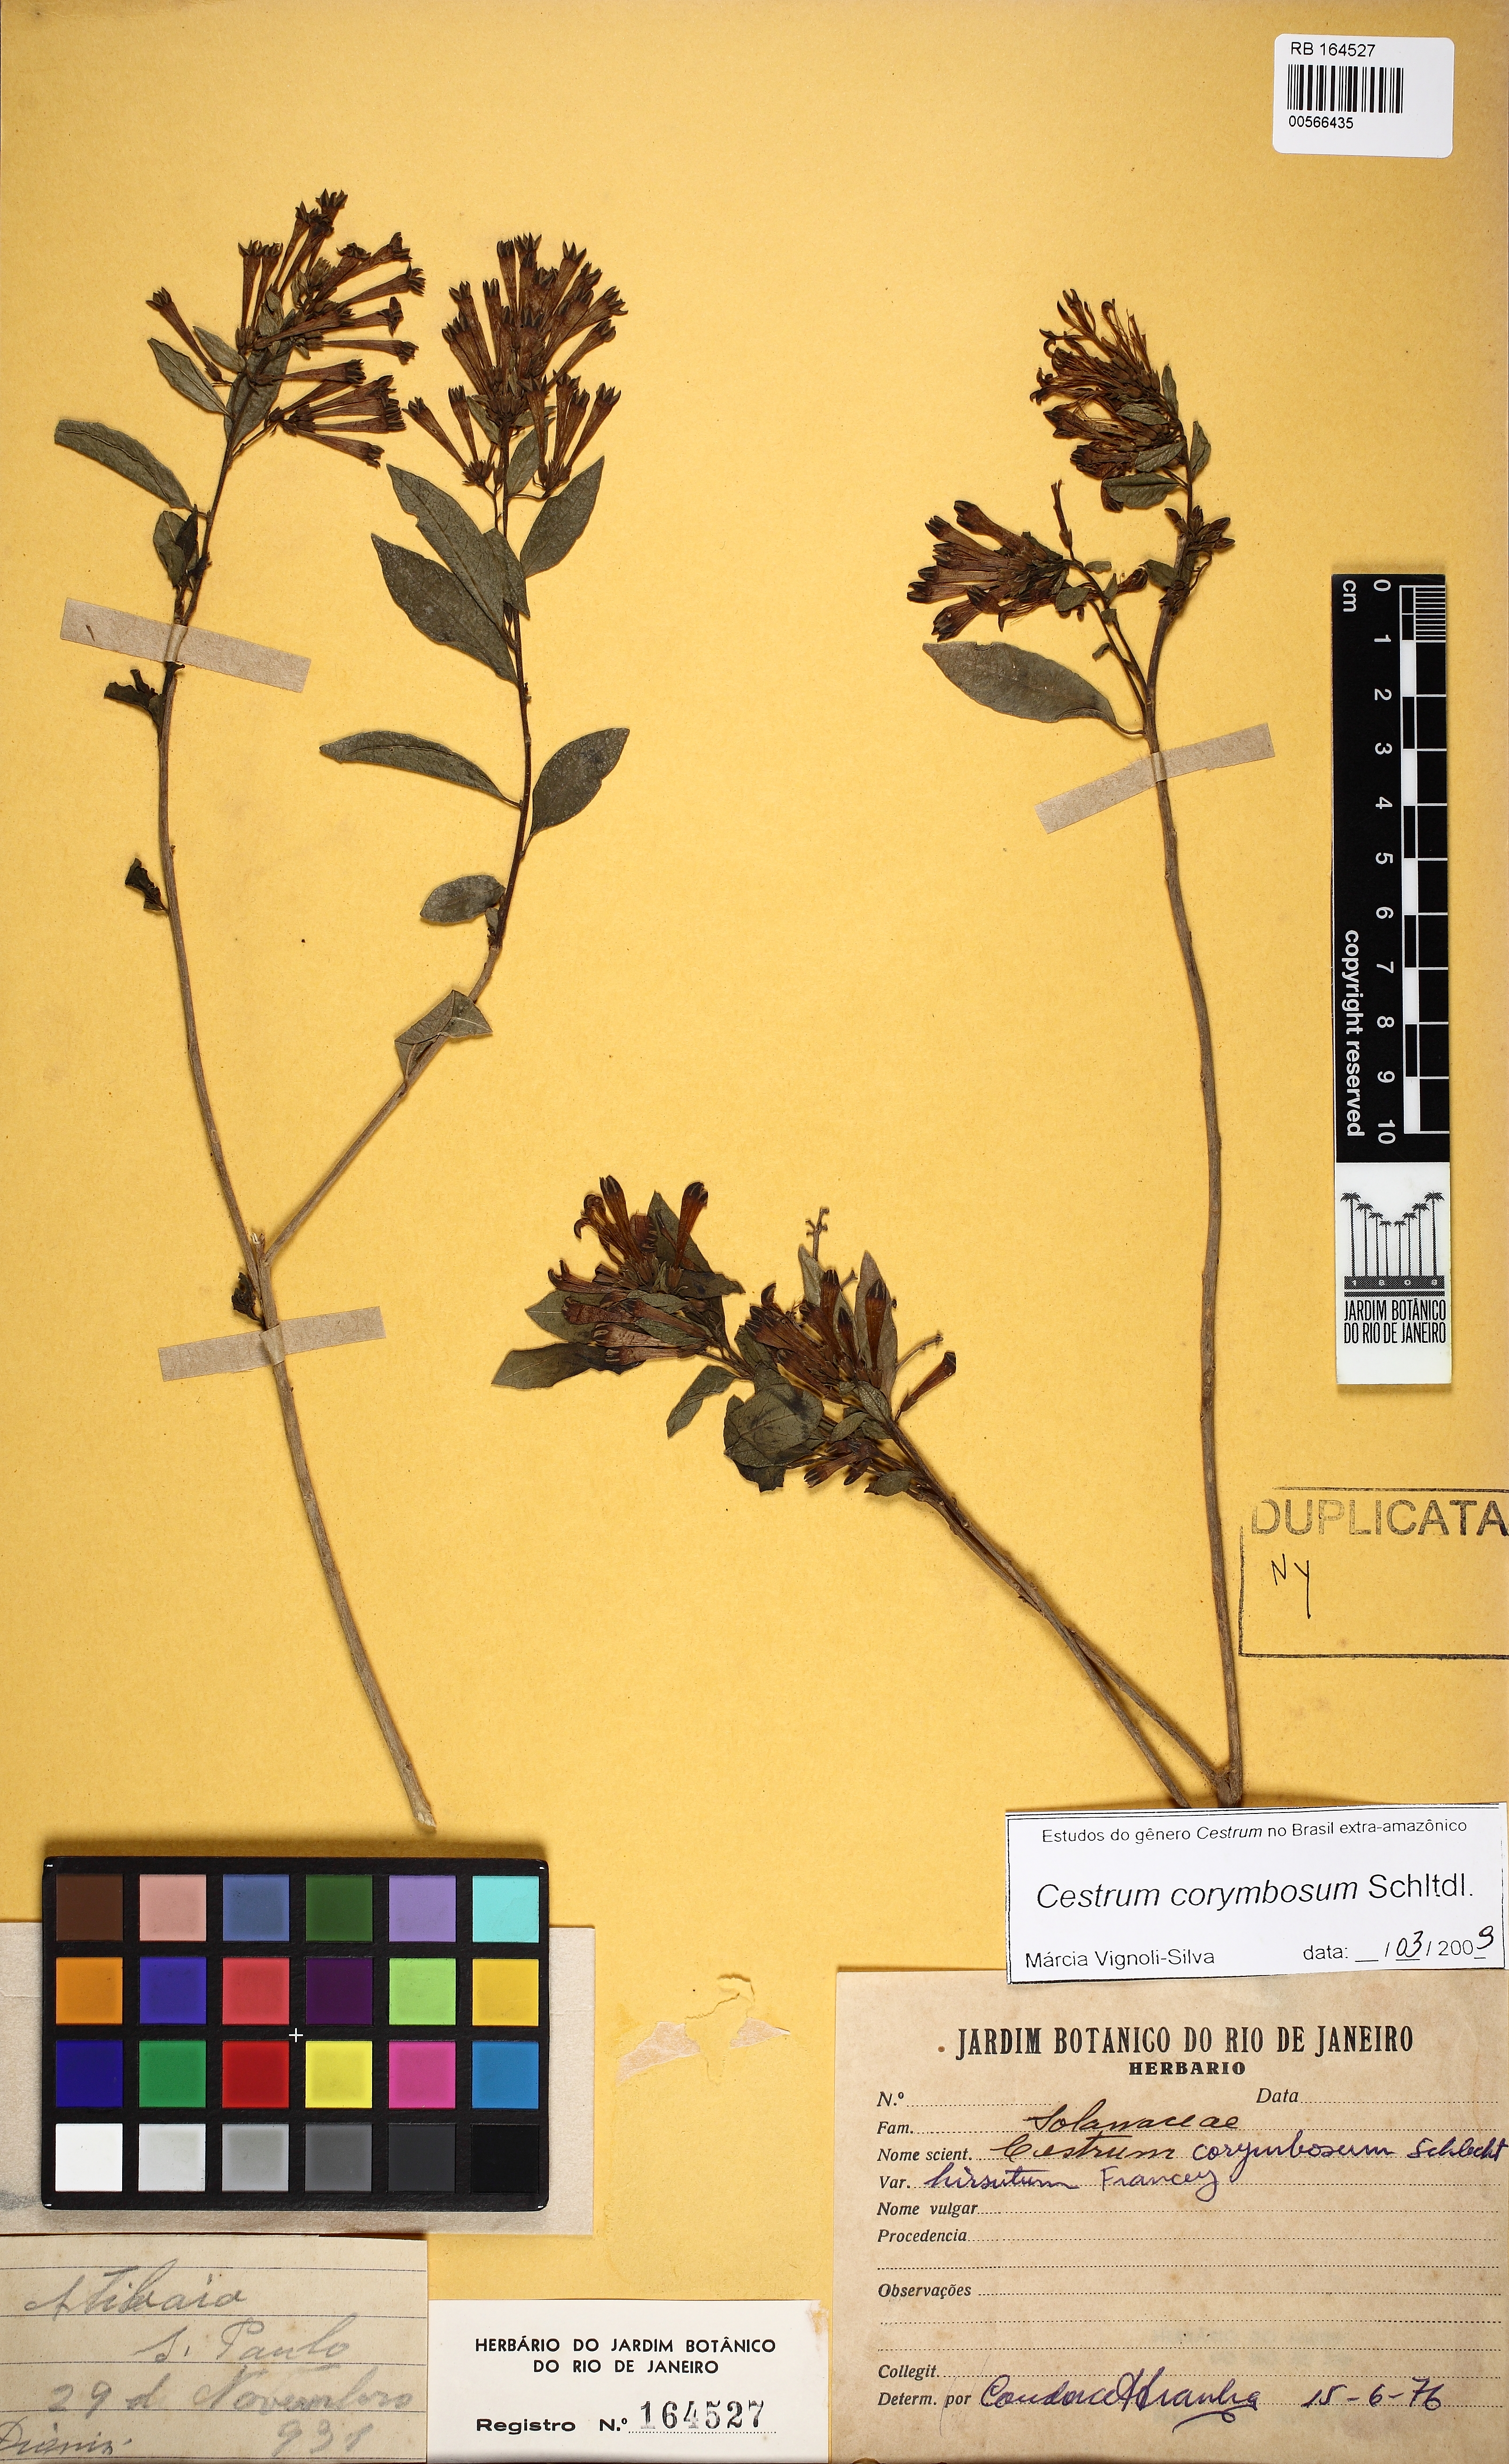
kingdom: Plantae
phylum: Tracheophyta
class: Magnoliopsida
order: Solanales
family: Solanaceae
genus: Cestrum
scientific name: Cestrum corymbosum
